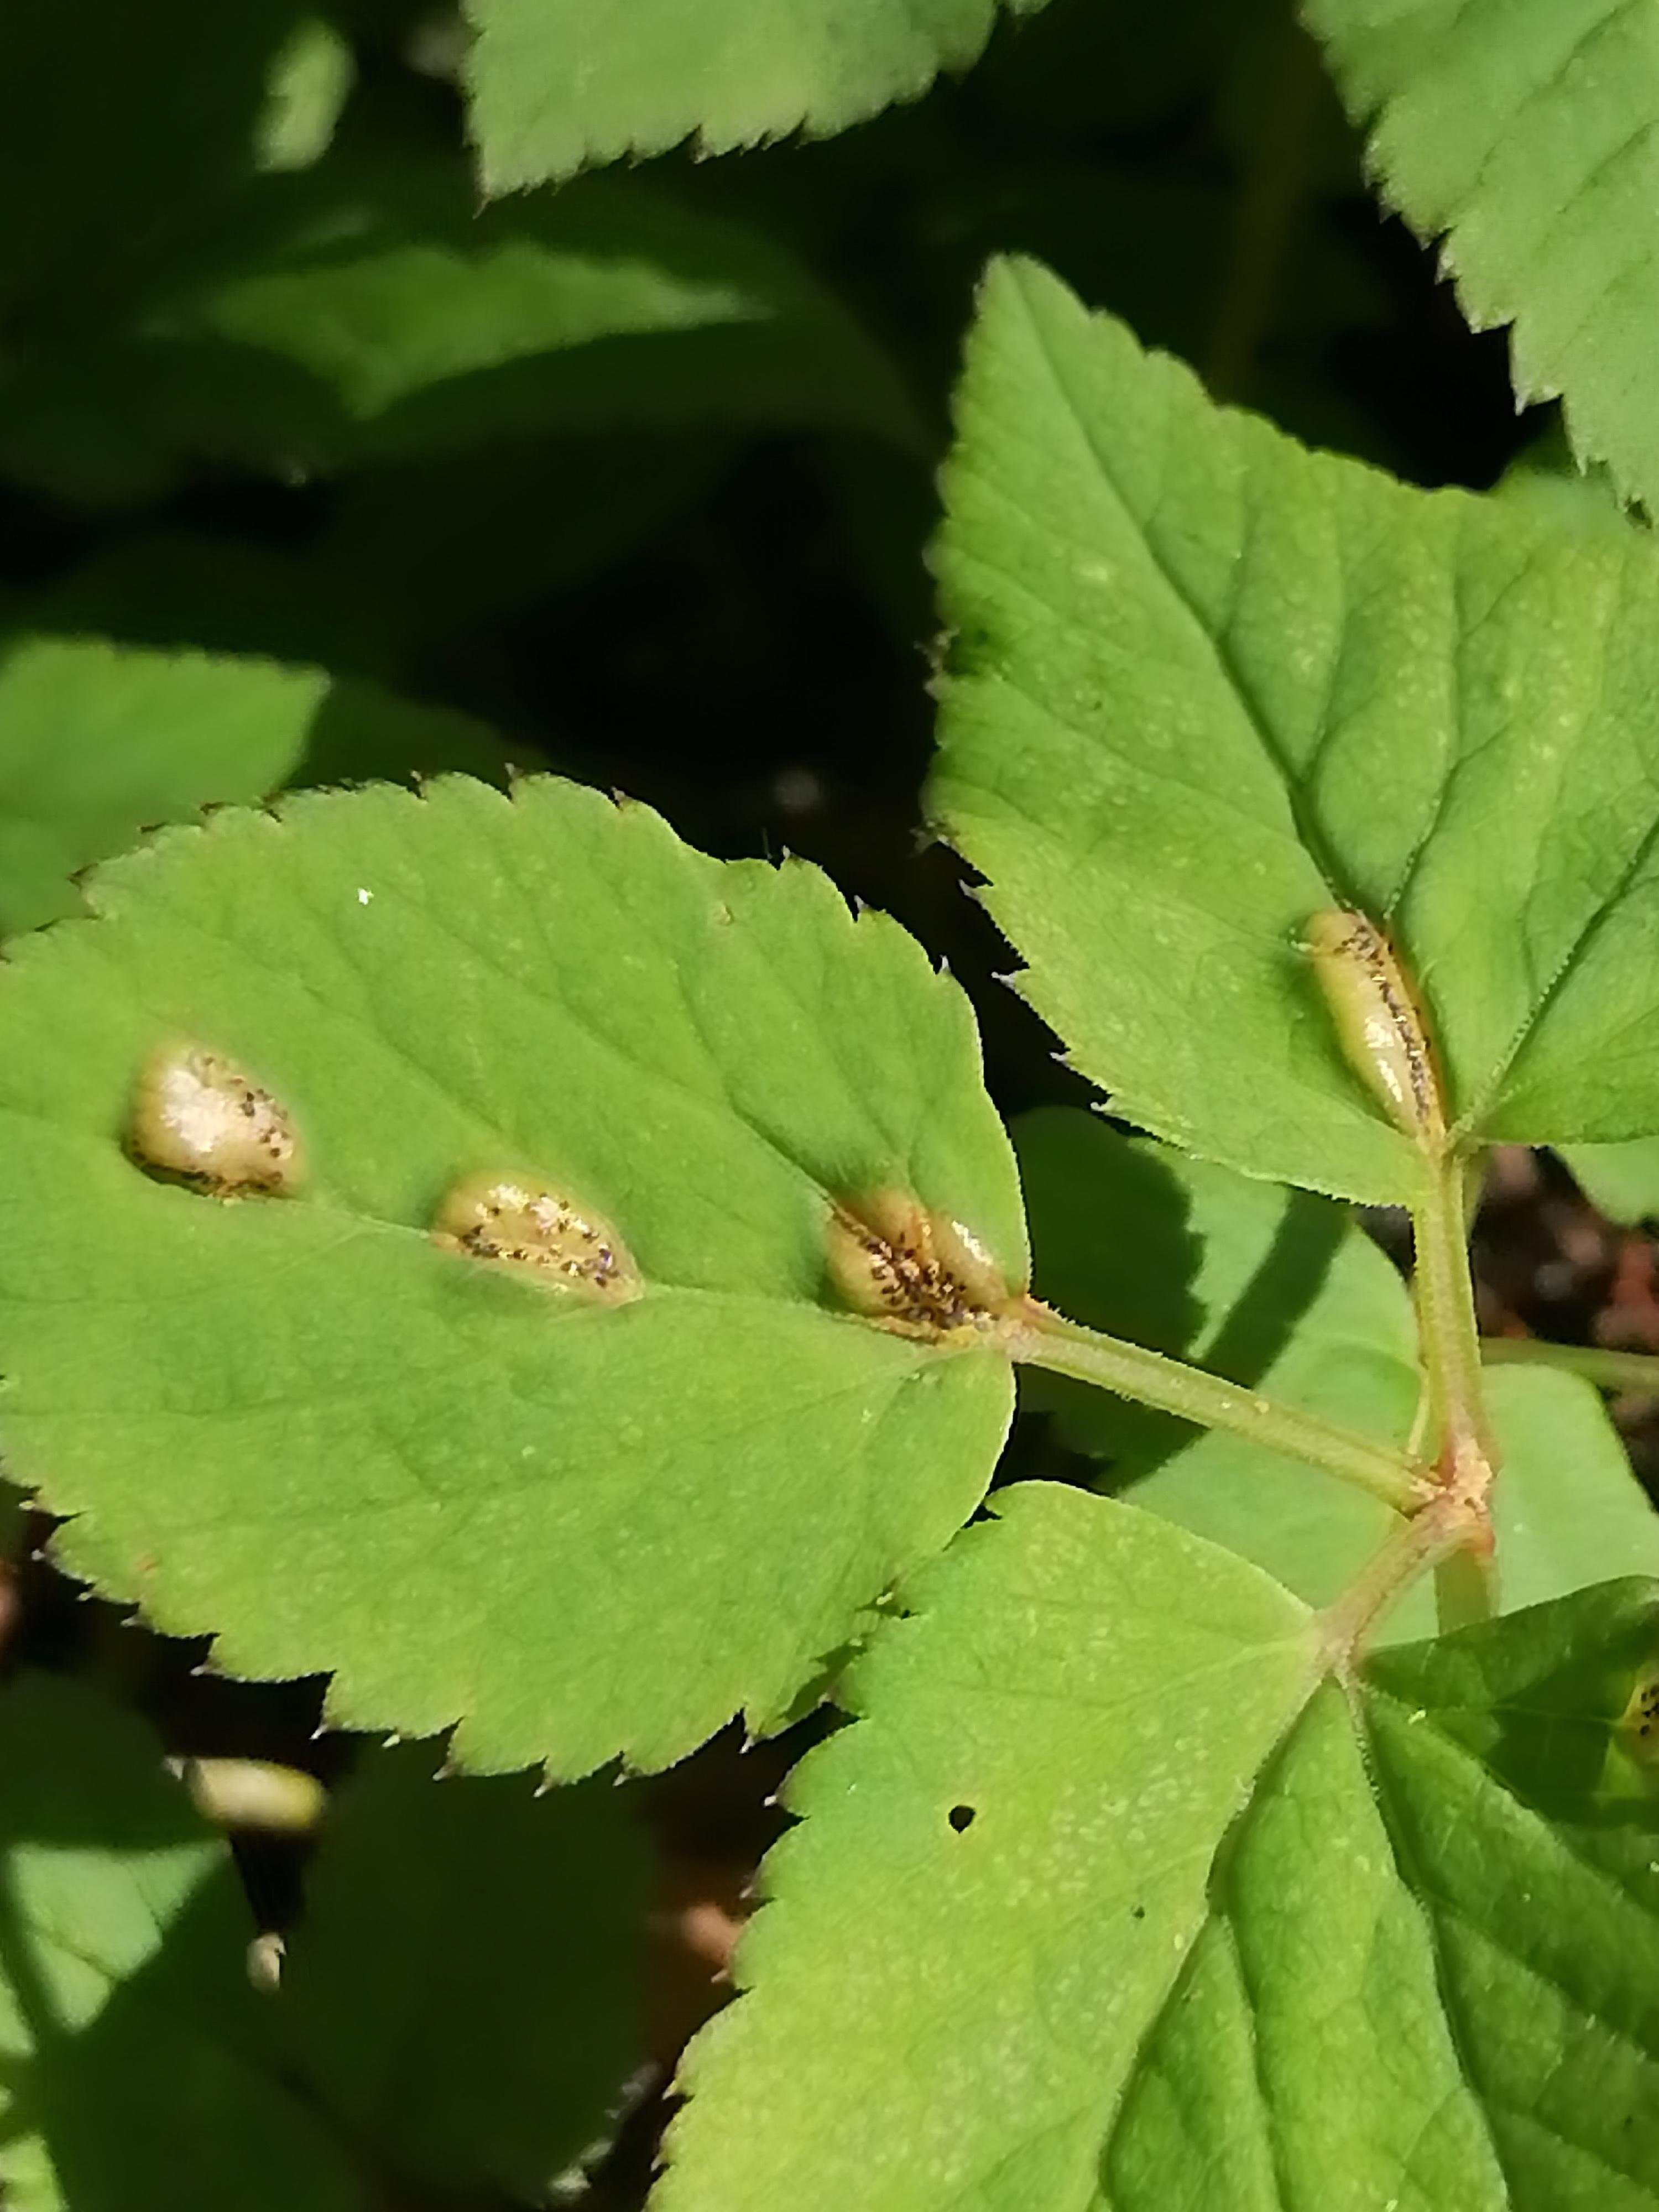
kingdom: Fungi
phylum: Basidiomycota
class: Pucciniomycetes
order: Pucciniales
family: Pucciniaceae
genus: Puccinia
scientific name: Puccinia
